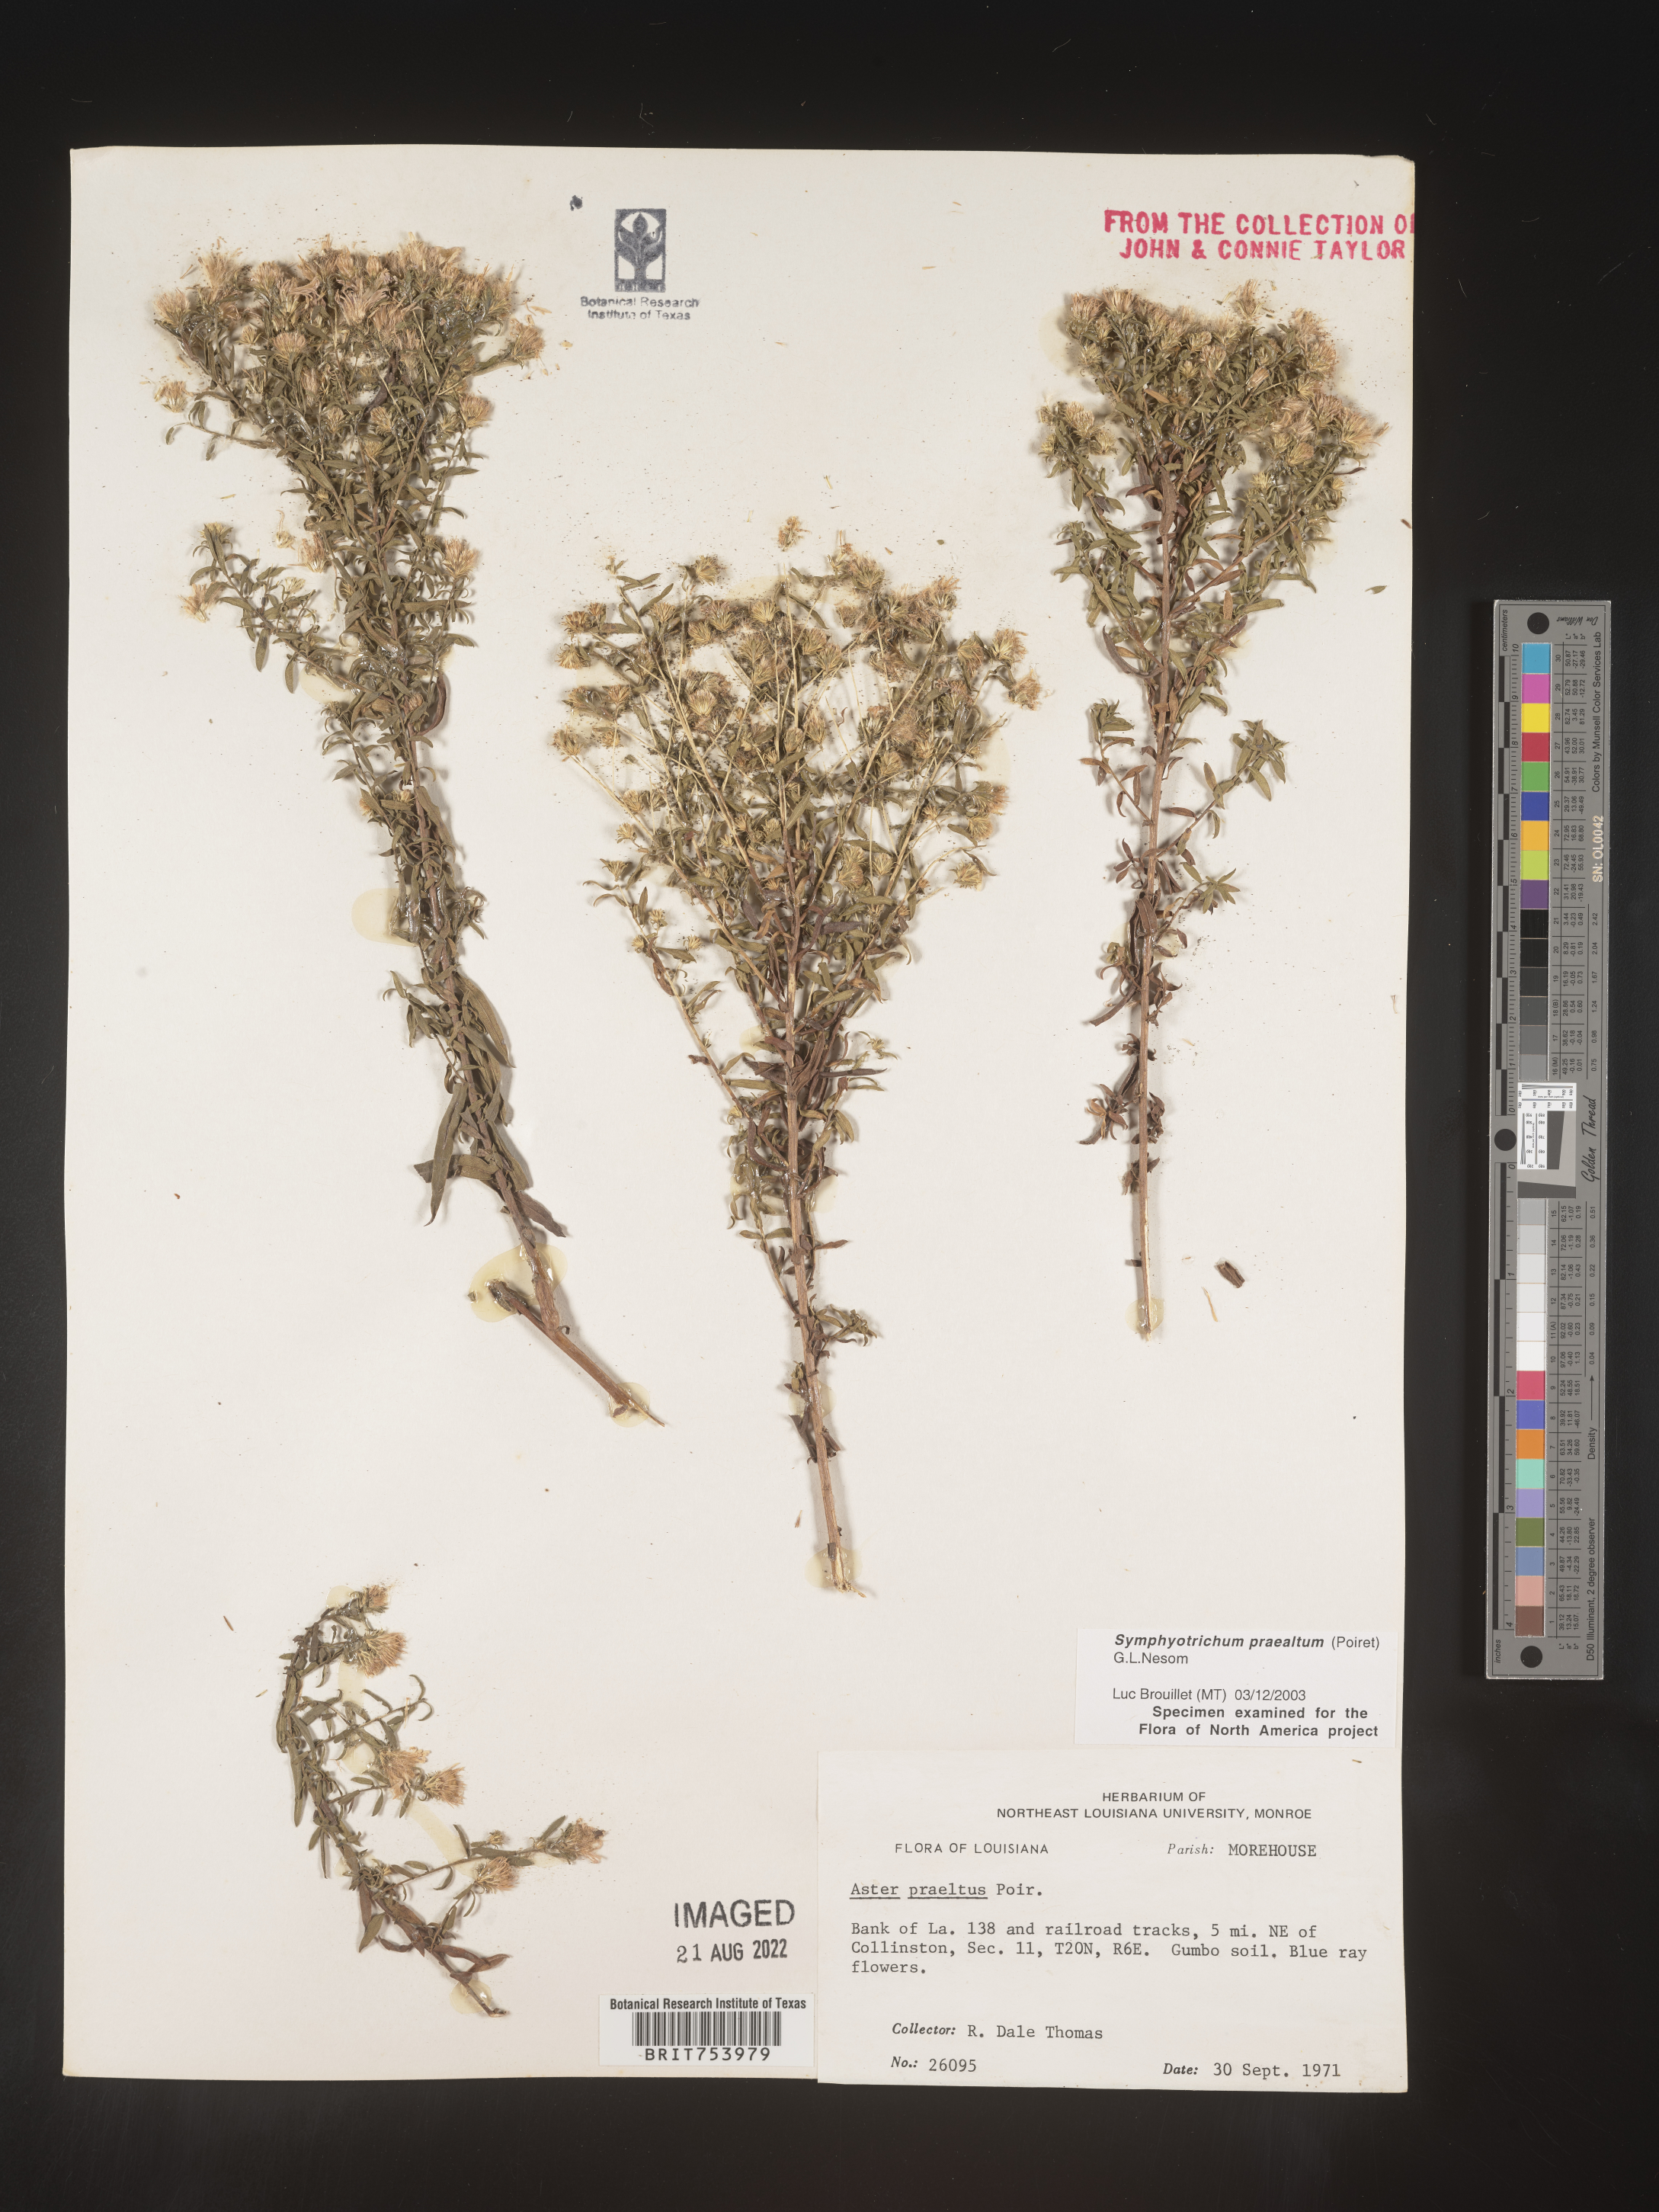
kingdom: Plantae
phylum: Tracheophyta
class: Magnoliopsida
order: Asterales
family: Asteraceae
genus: Symphyotrichum
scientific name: Symphyotrichum praealtum
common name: Willow aster
